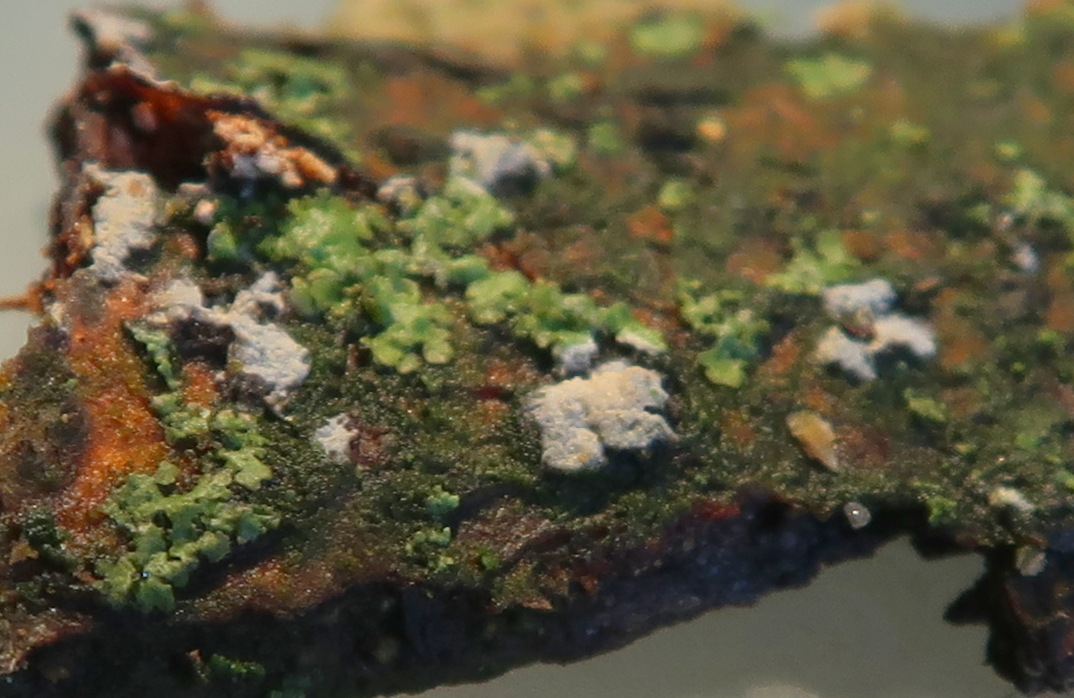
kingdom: Fungi
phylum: Basidiomycota
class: Agaricomycetes
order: Corticiales
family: Corticiaceae
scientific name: Corticiaceae
